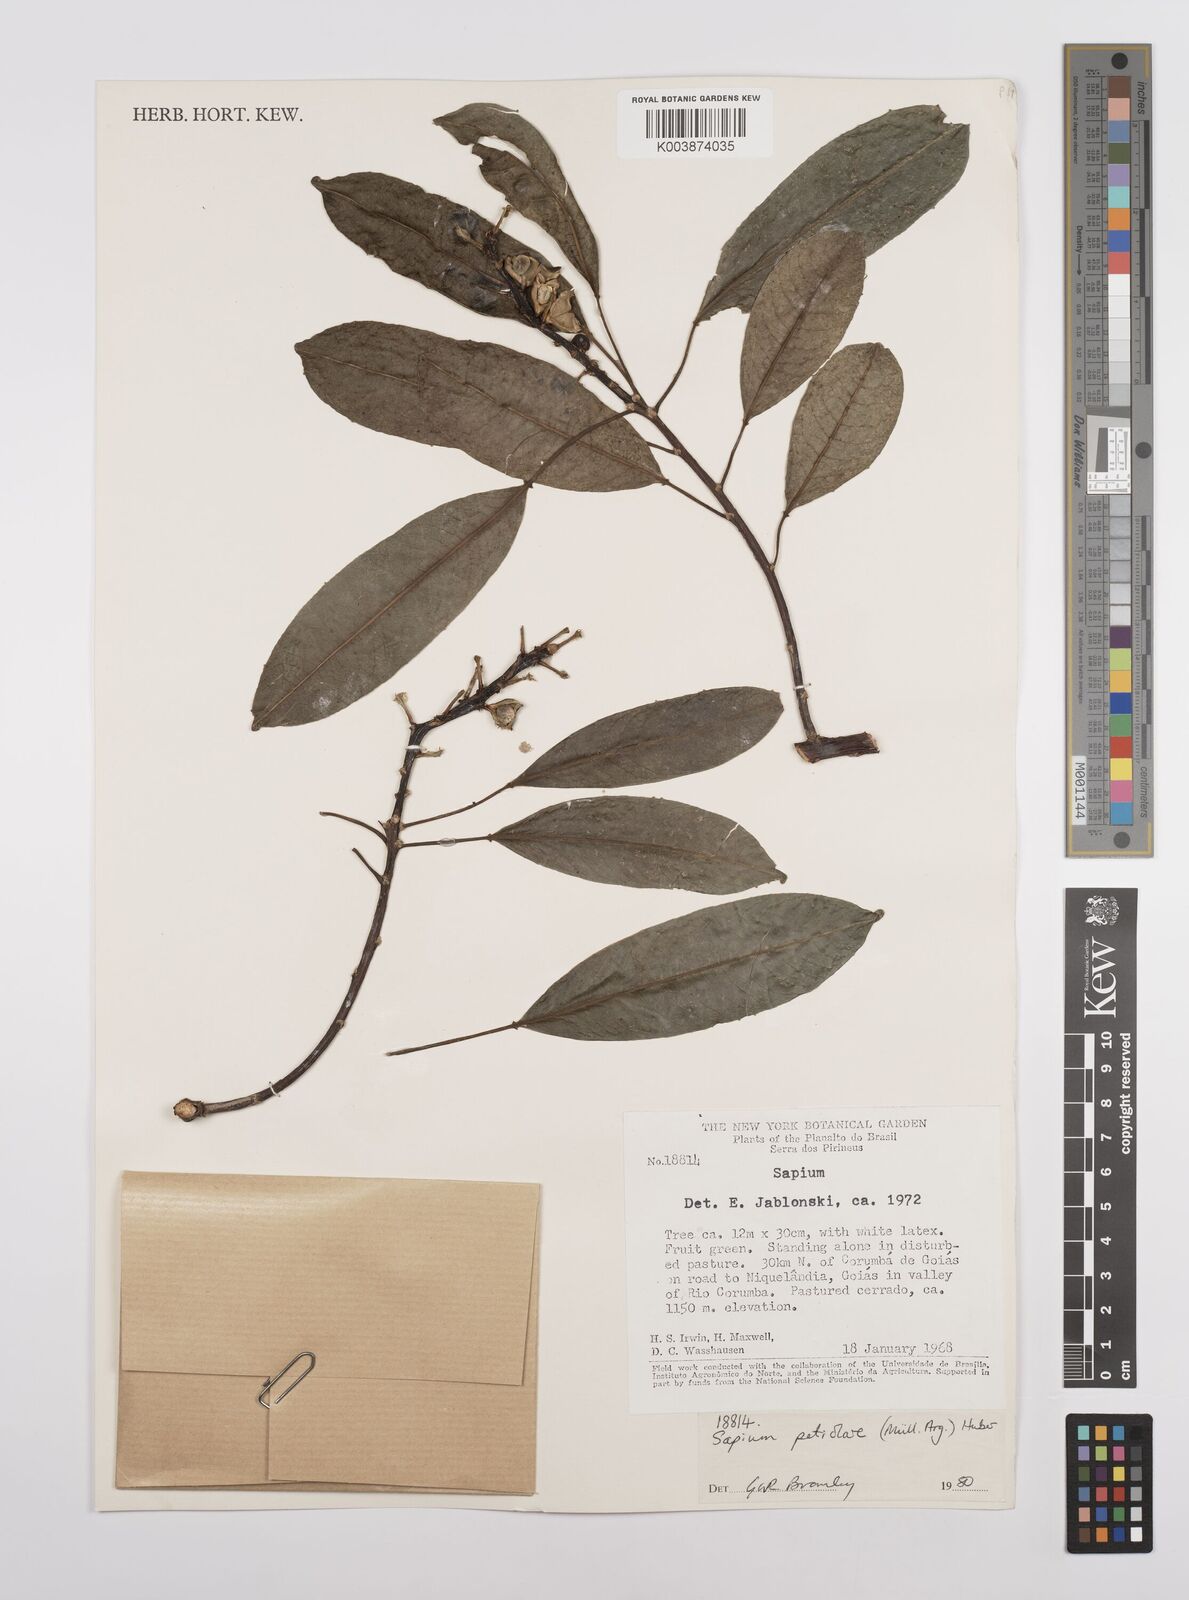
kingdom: Plantae
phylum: Tracheophyta
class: Magnoliopsida
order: Malpighiales
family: Euphorbiaceae
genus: Sapium
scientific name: Sapium glandulosum
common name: Milktree
